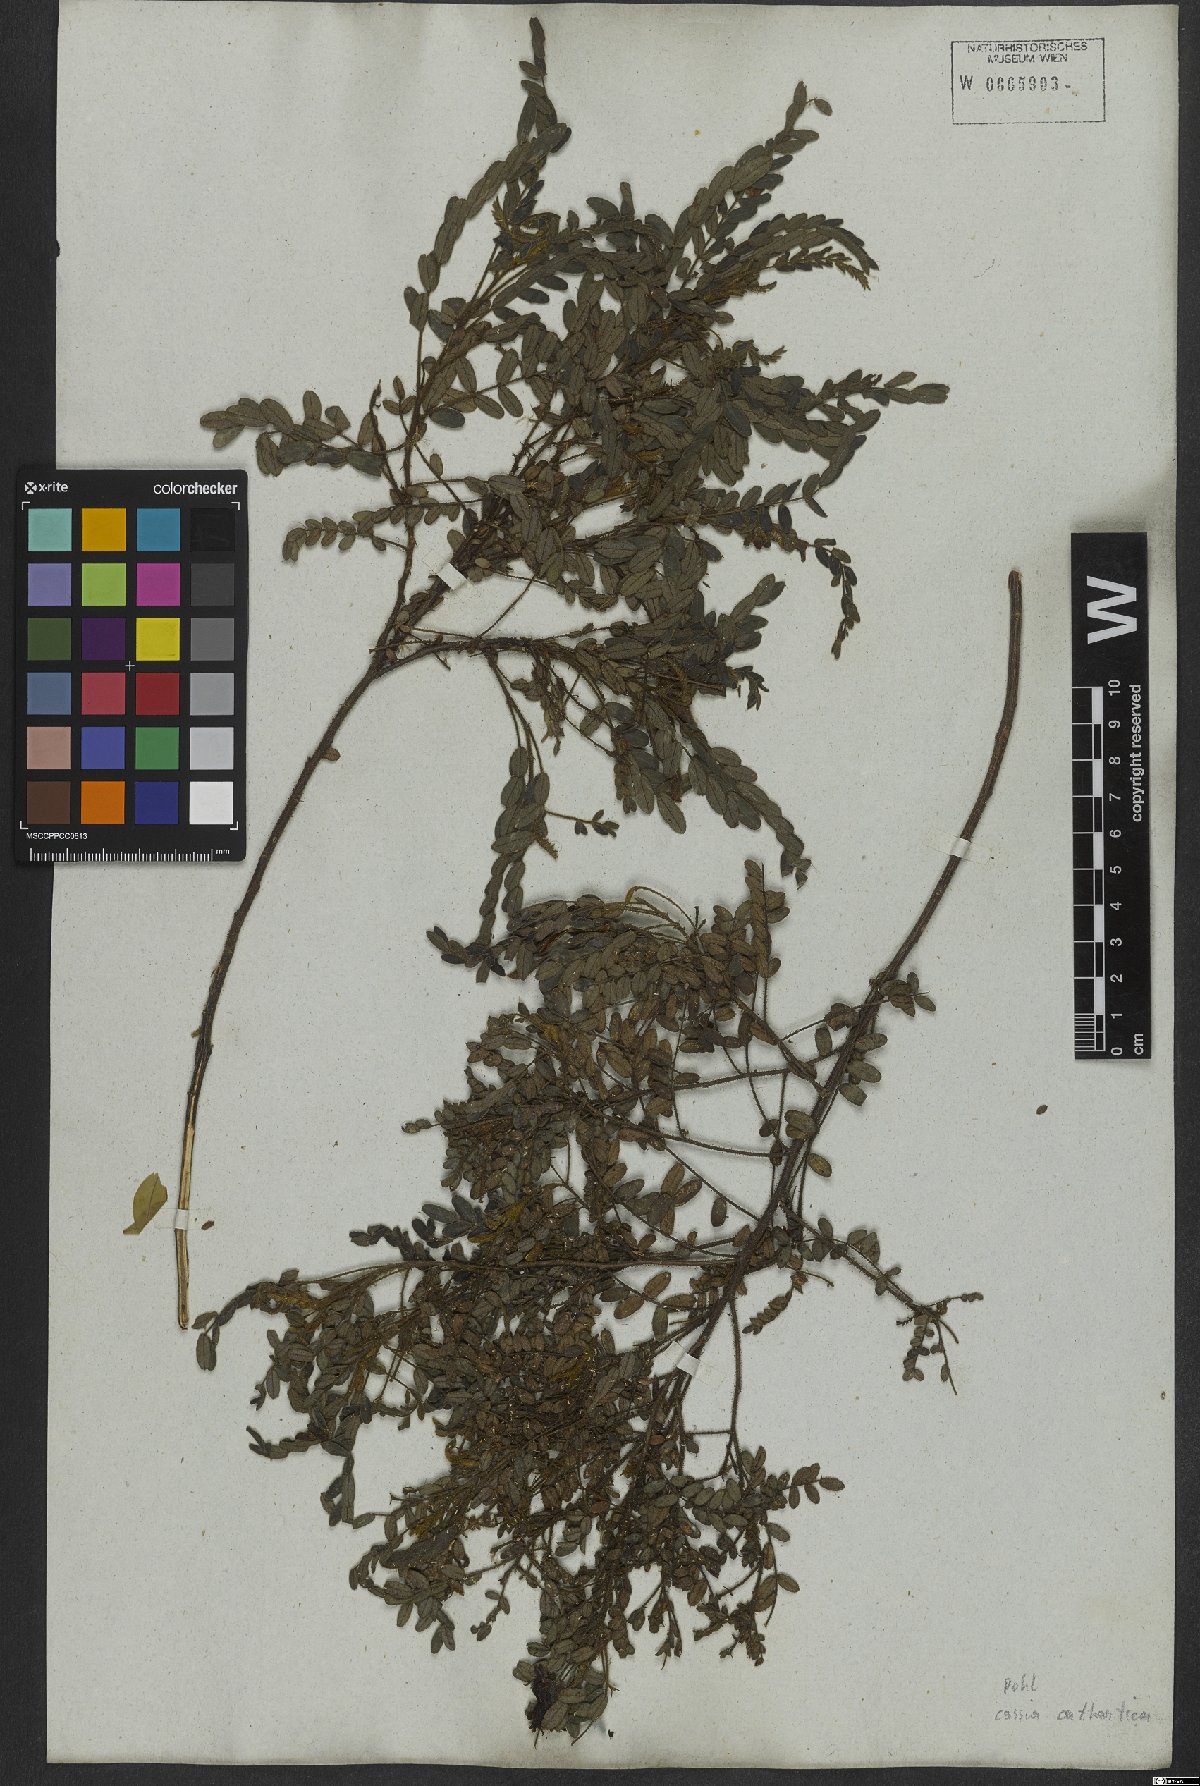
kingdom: Plantae
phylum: Tracheophyta
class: Magnoliopsida
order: Fabales
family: Fabaceae
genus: Chamaecrista
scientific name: Chamaecrista cathartica
